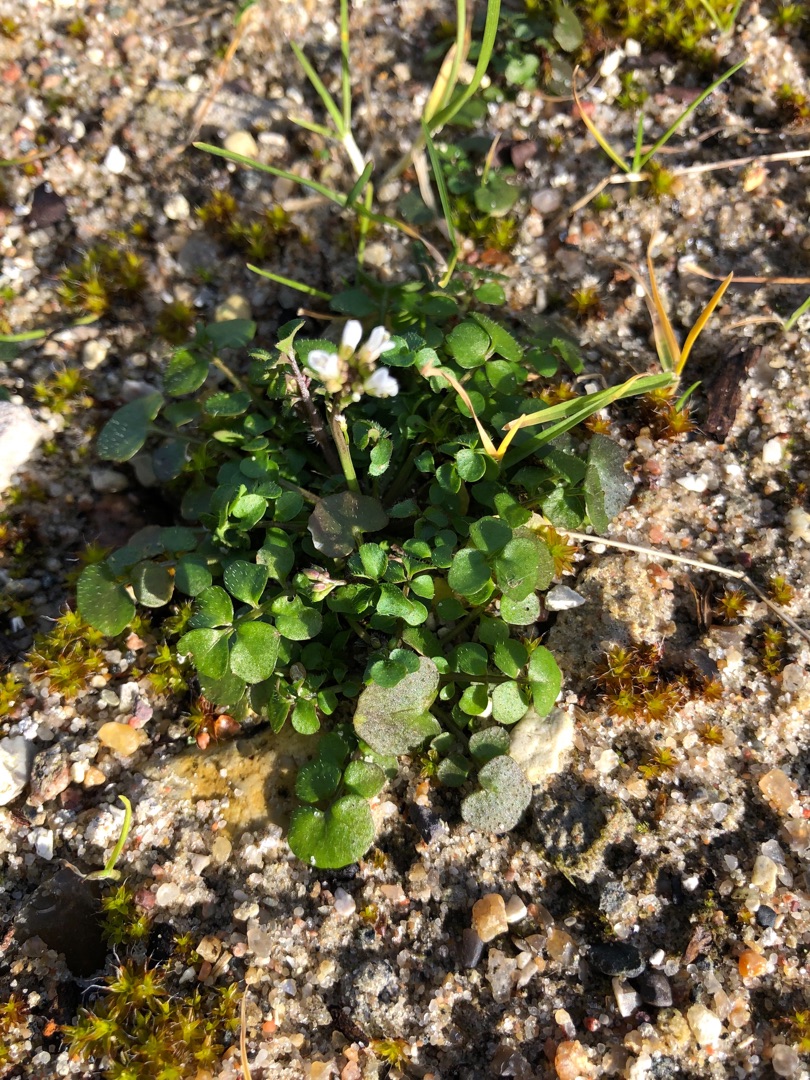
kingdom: Plantae
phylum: Tracheophyta
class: Magnoliopsida
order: Brassicales
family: Brassicaceae
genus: Cardamine
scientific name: Cardamine hirsuta
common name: Roset-springklap
